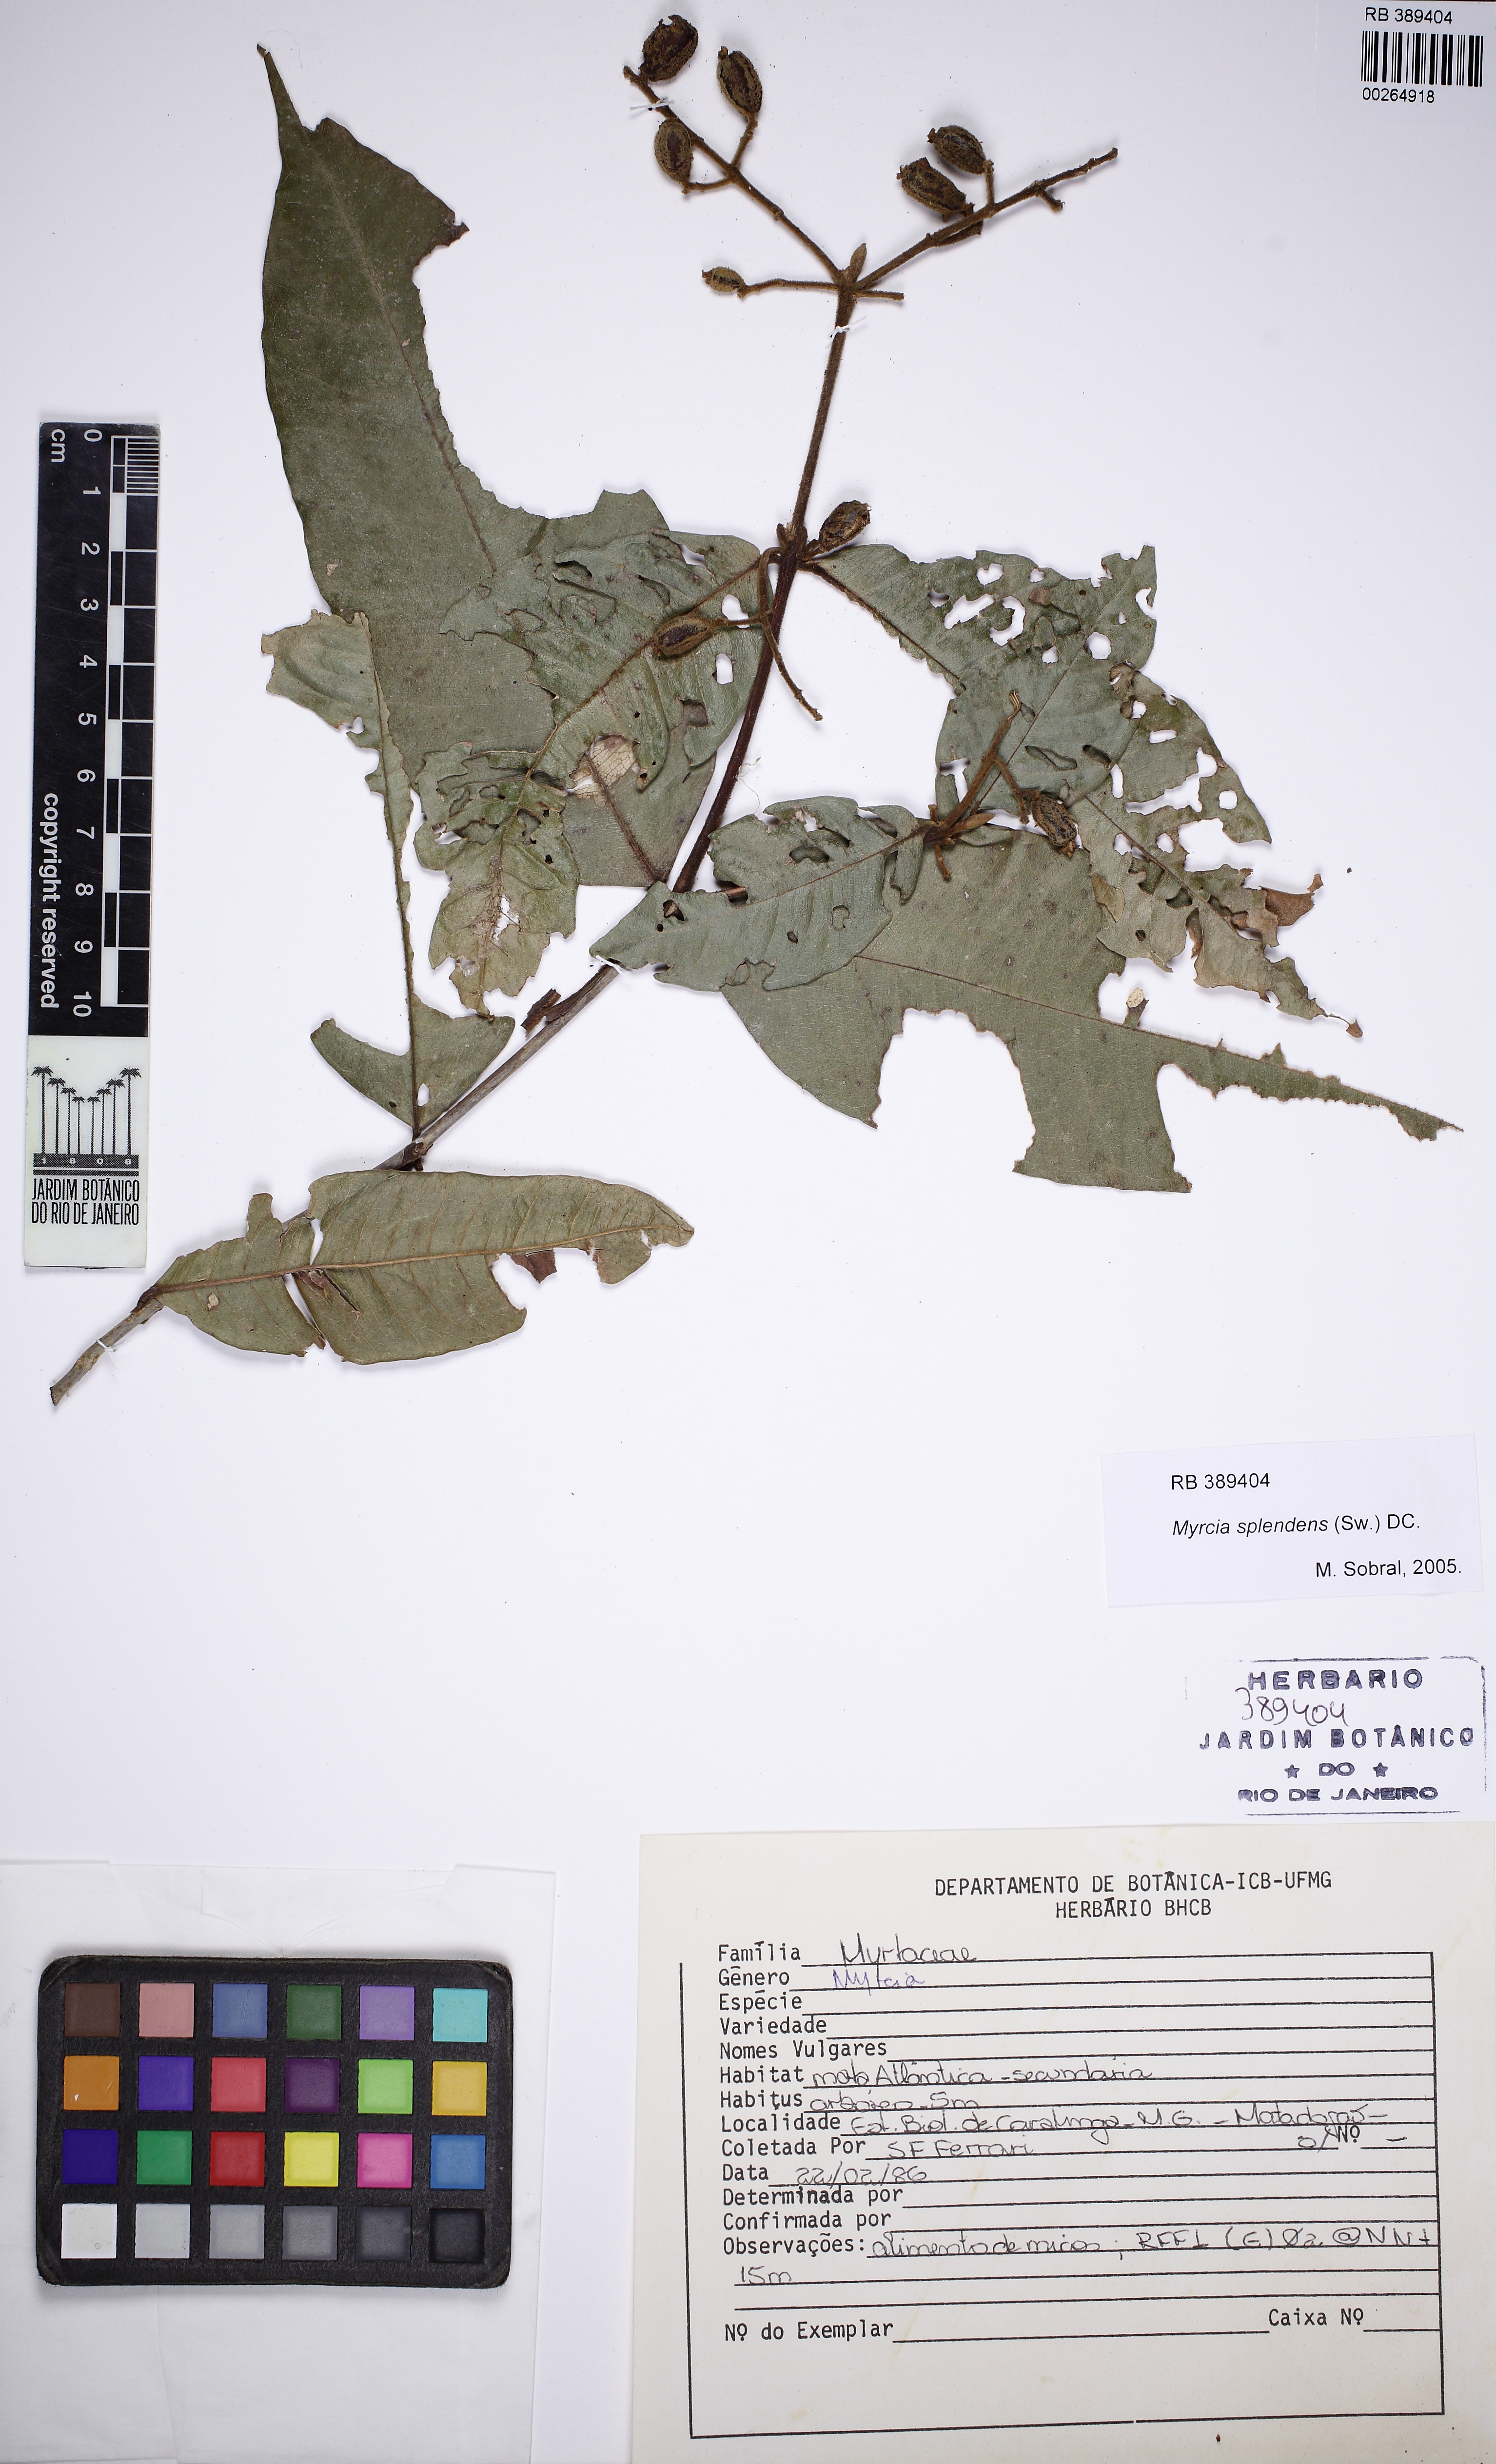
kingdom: Plantae
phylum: Tracheophyta
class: Magnoliopsida
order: Myrtales
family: Myrtaceae
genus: Myrcia
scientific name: Myrcia splendens
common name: Surinam cherry
